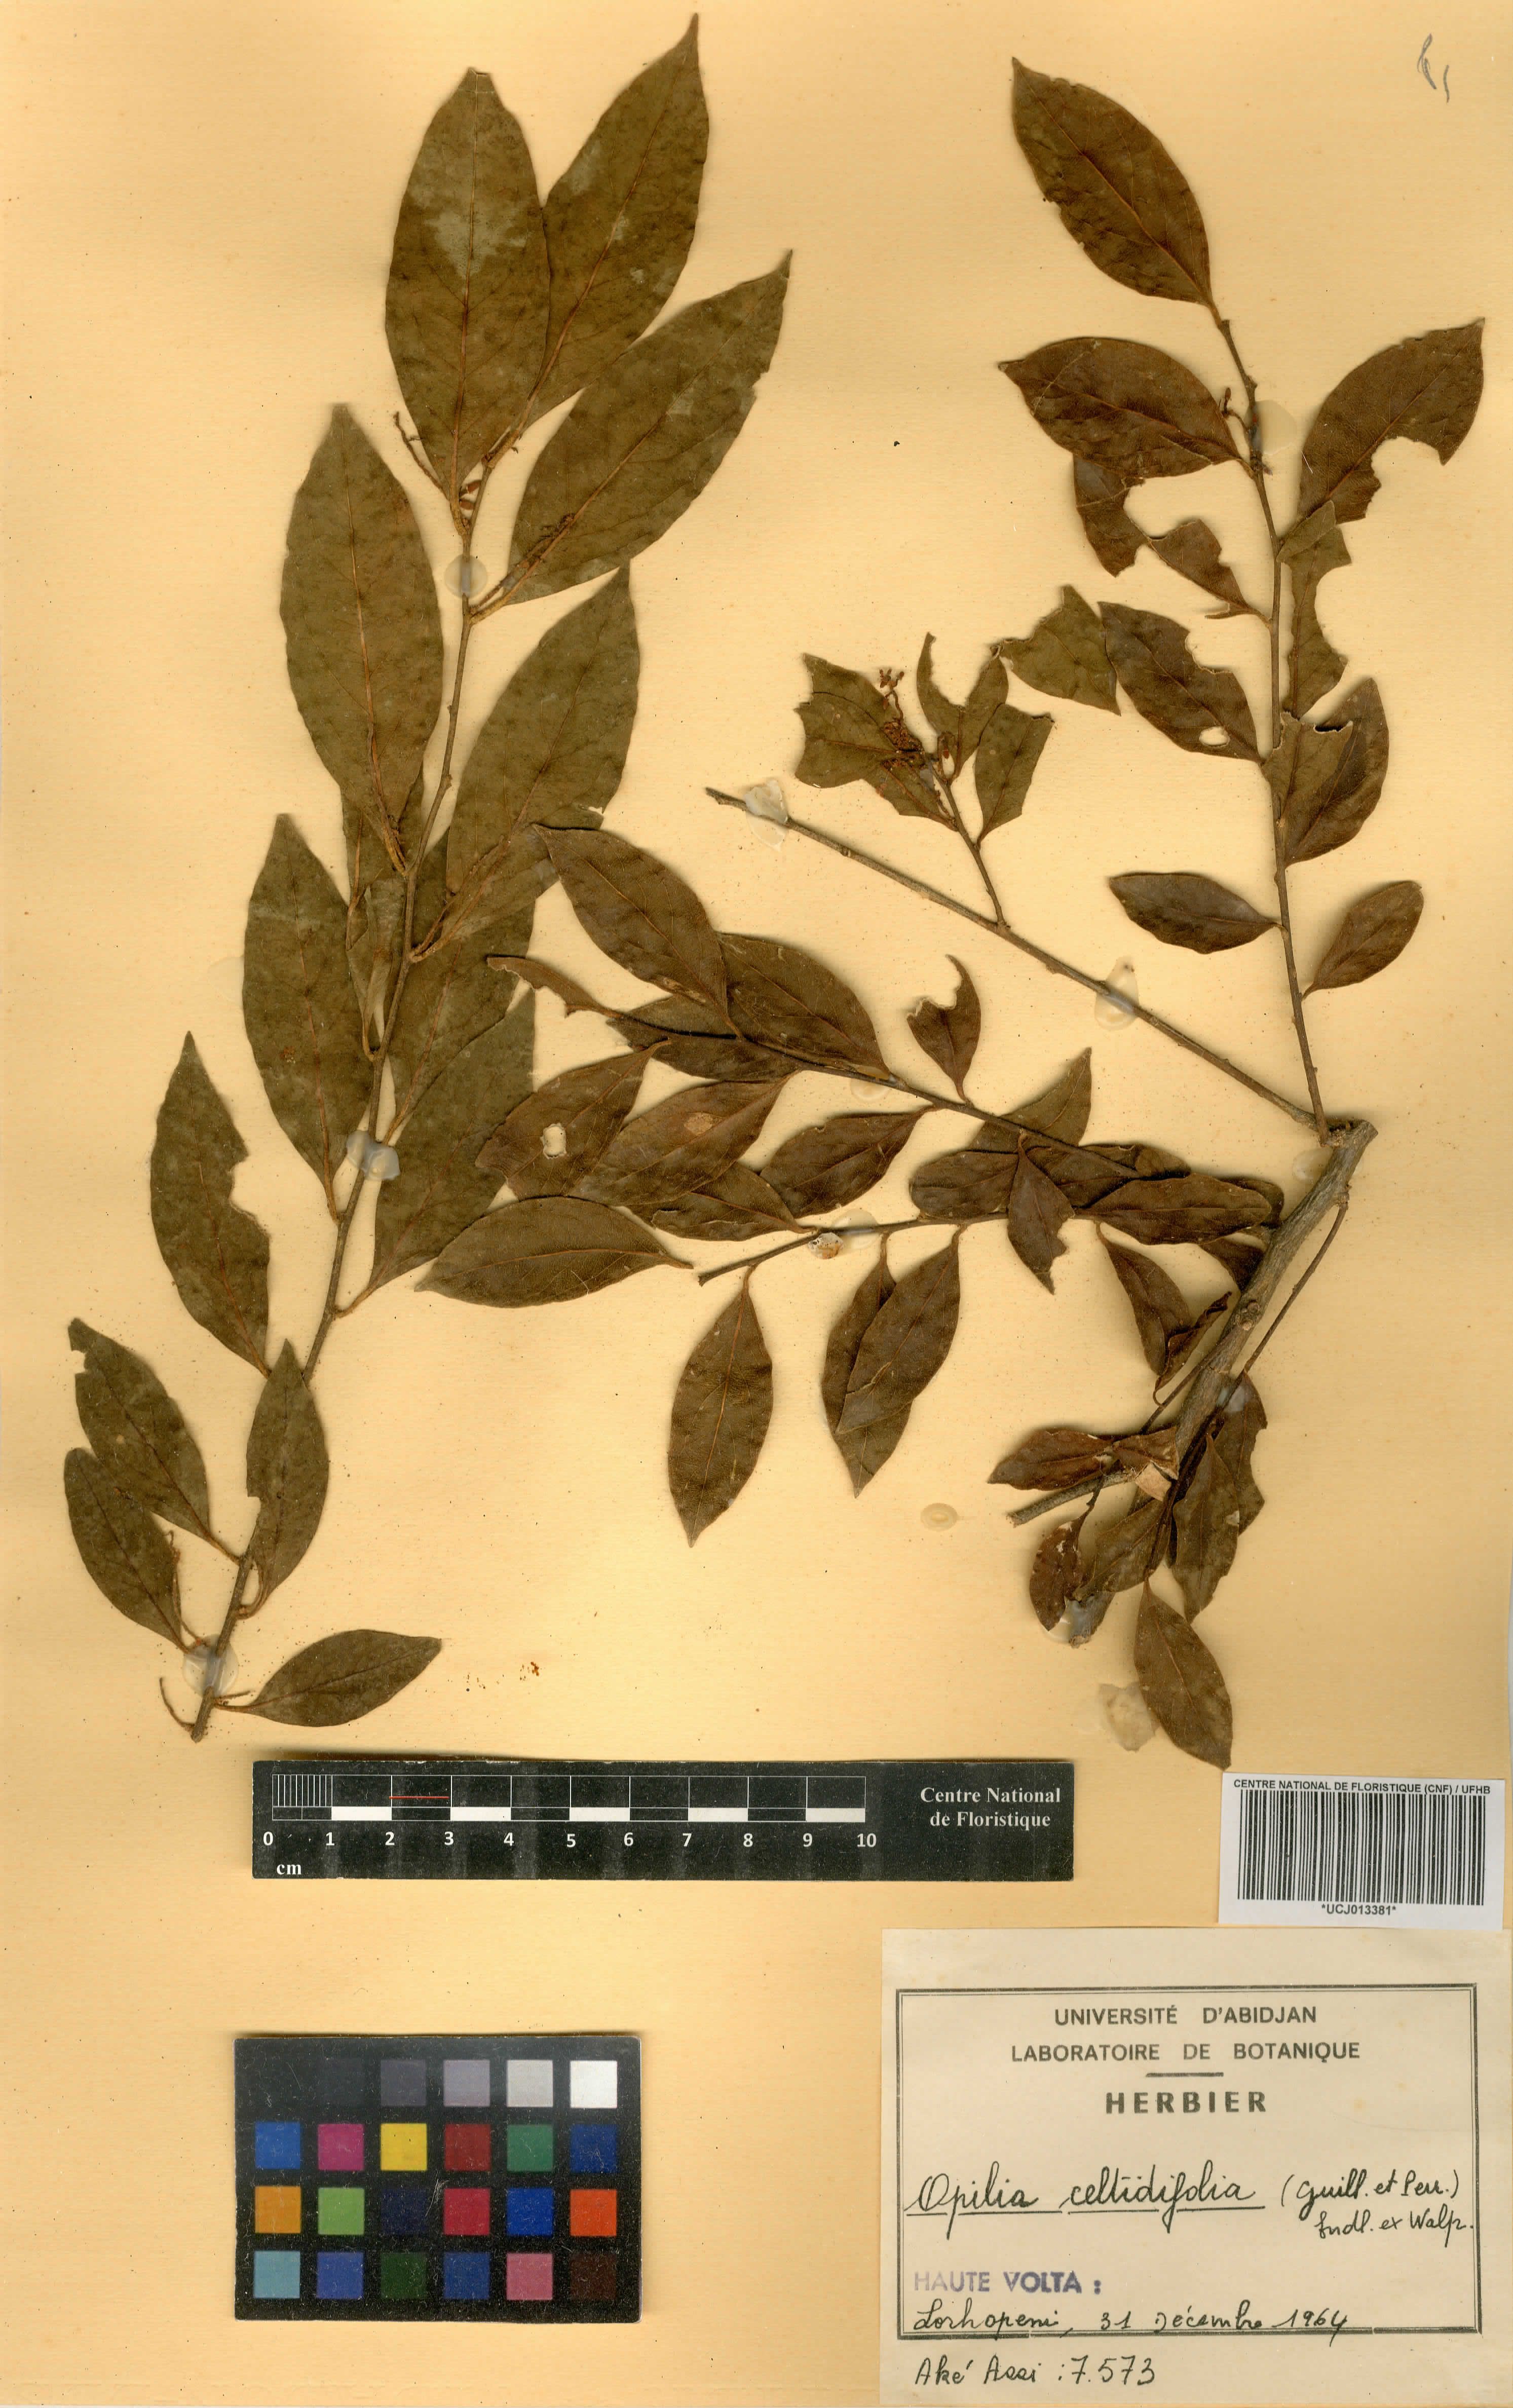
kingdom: Plantae
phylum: Tracheophyta
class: Magnoliopsida
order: Santalales
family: Opiliaceae
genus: Opilia
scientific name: Opilia amentacea
